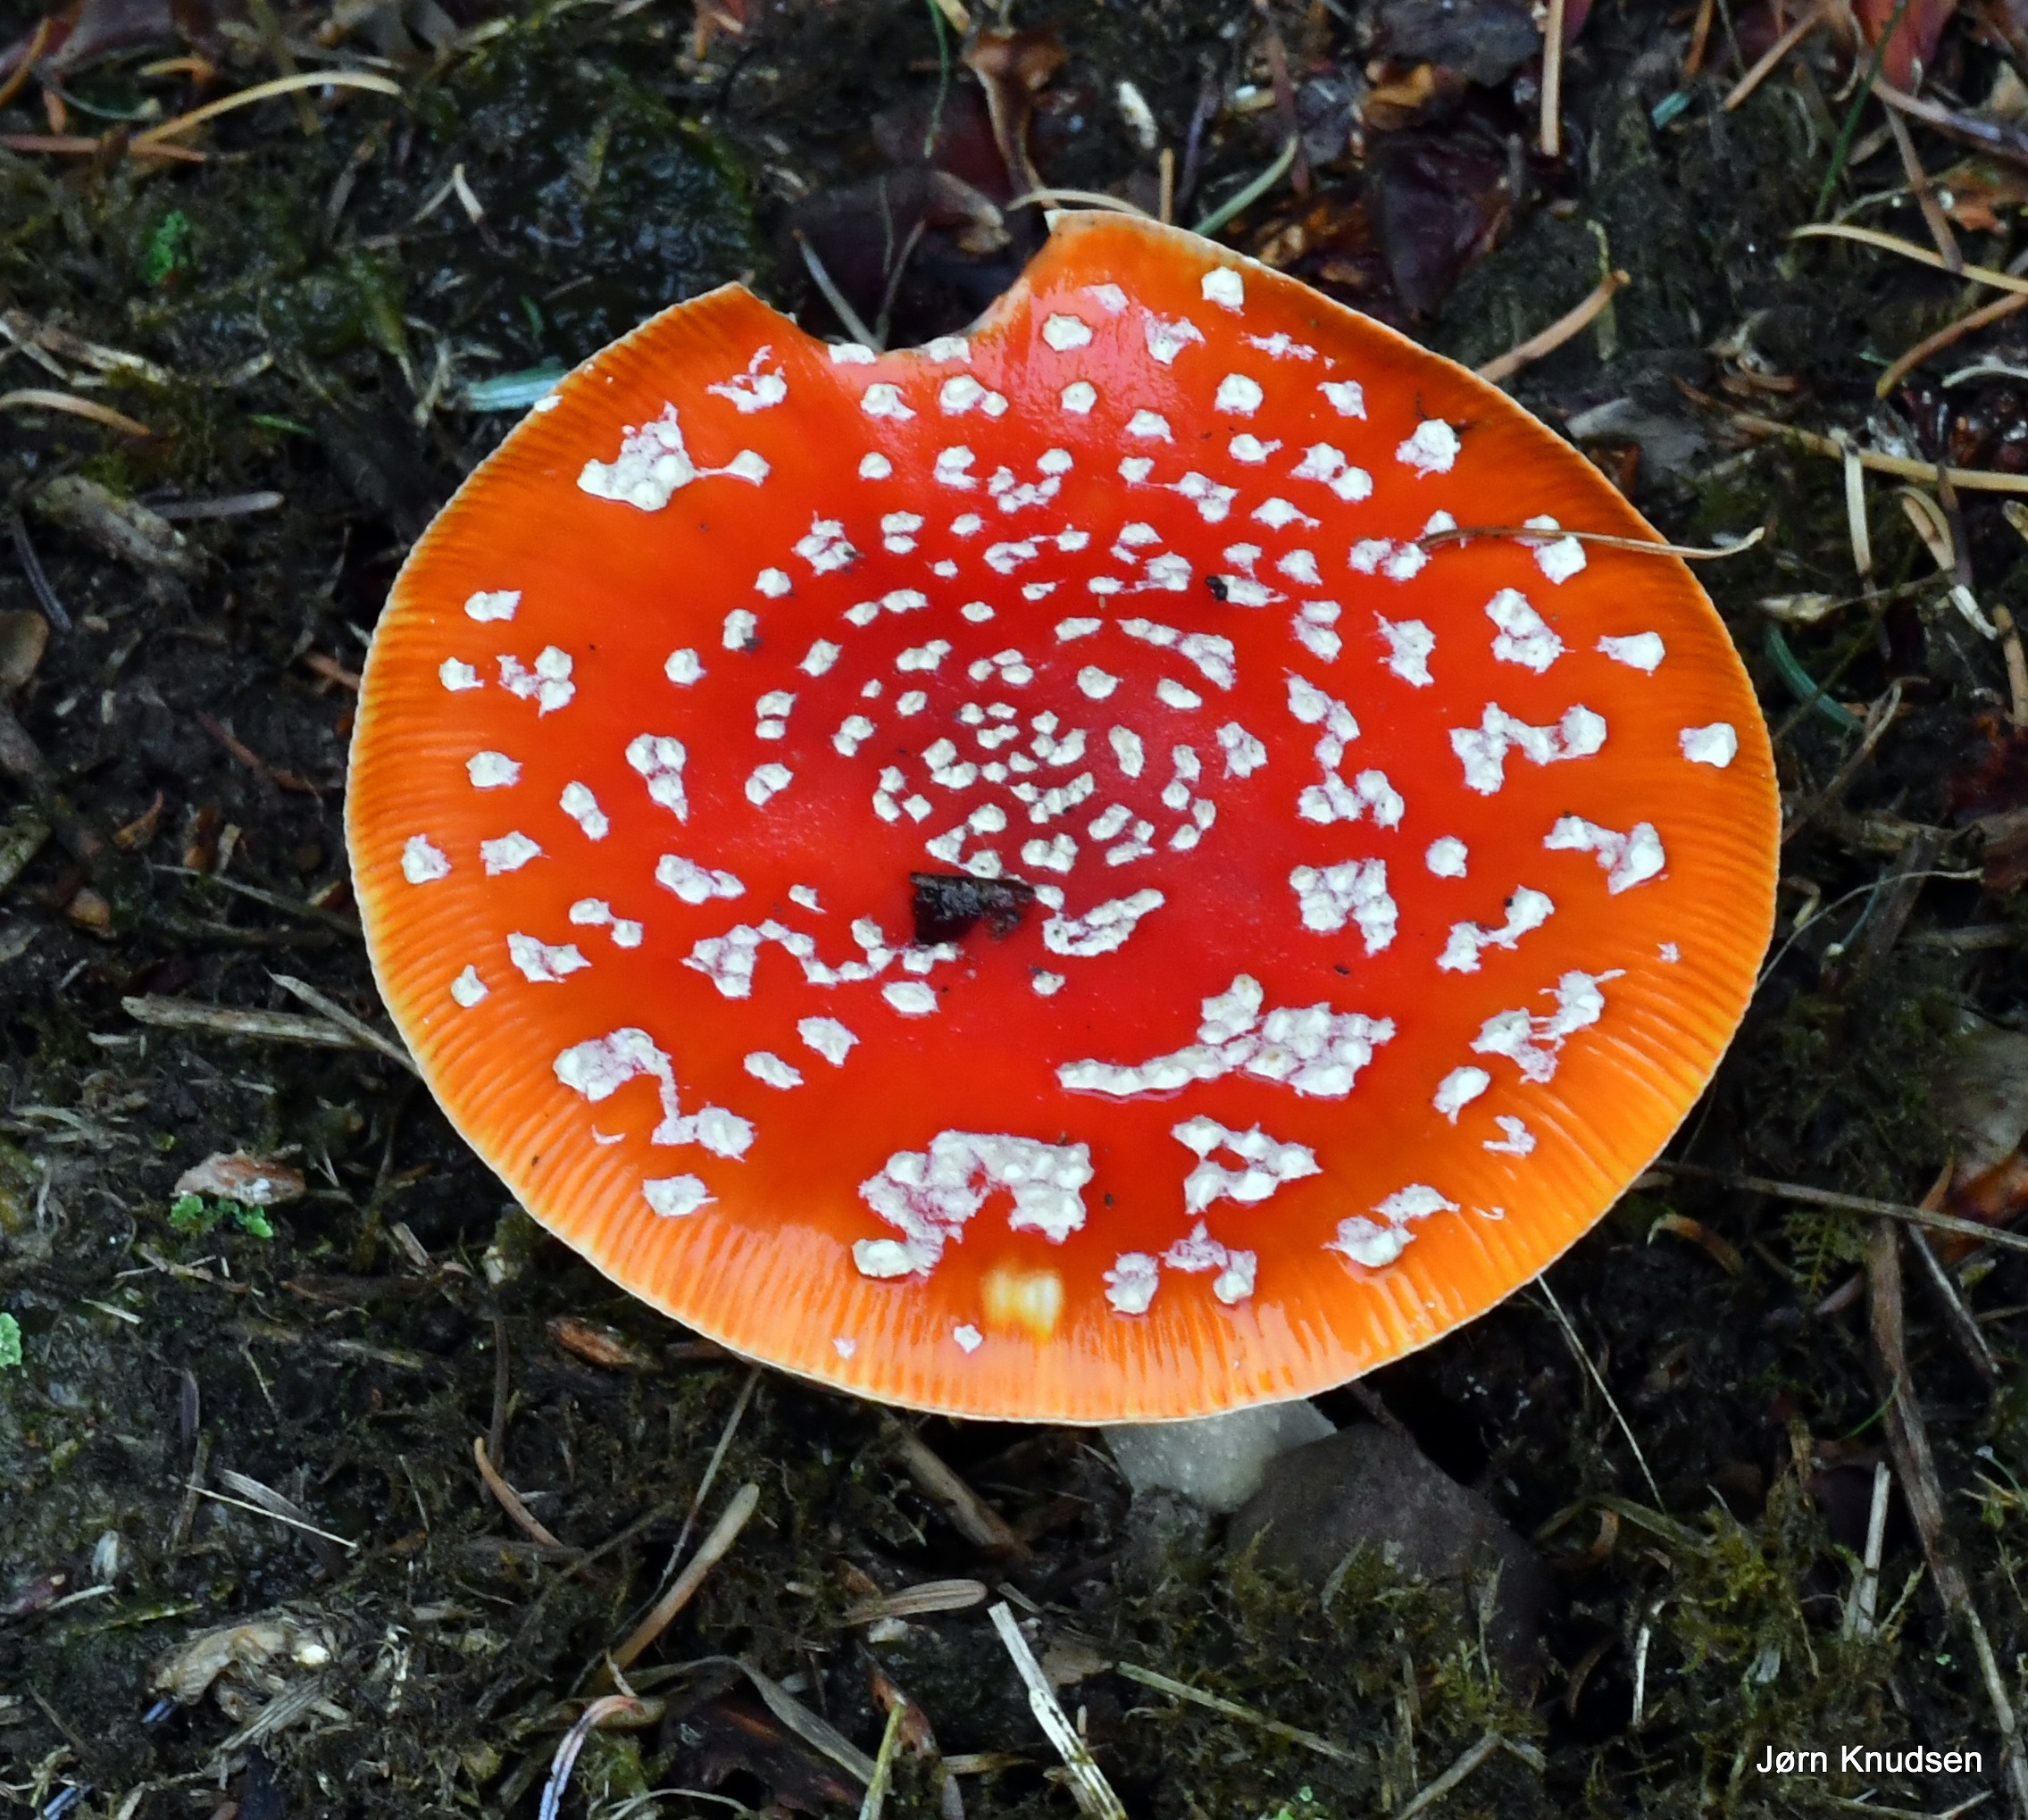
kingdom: Fungi
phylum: Basidiomycota
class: Agaricomycetes
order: Agaricales
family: Amanitaceae
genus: Amanita
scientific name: Amanita muscaria
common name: Rød fluesvamp
